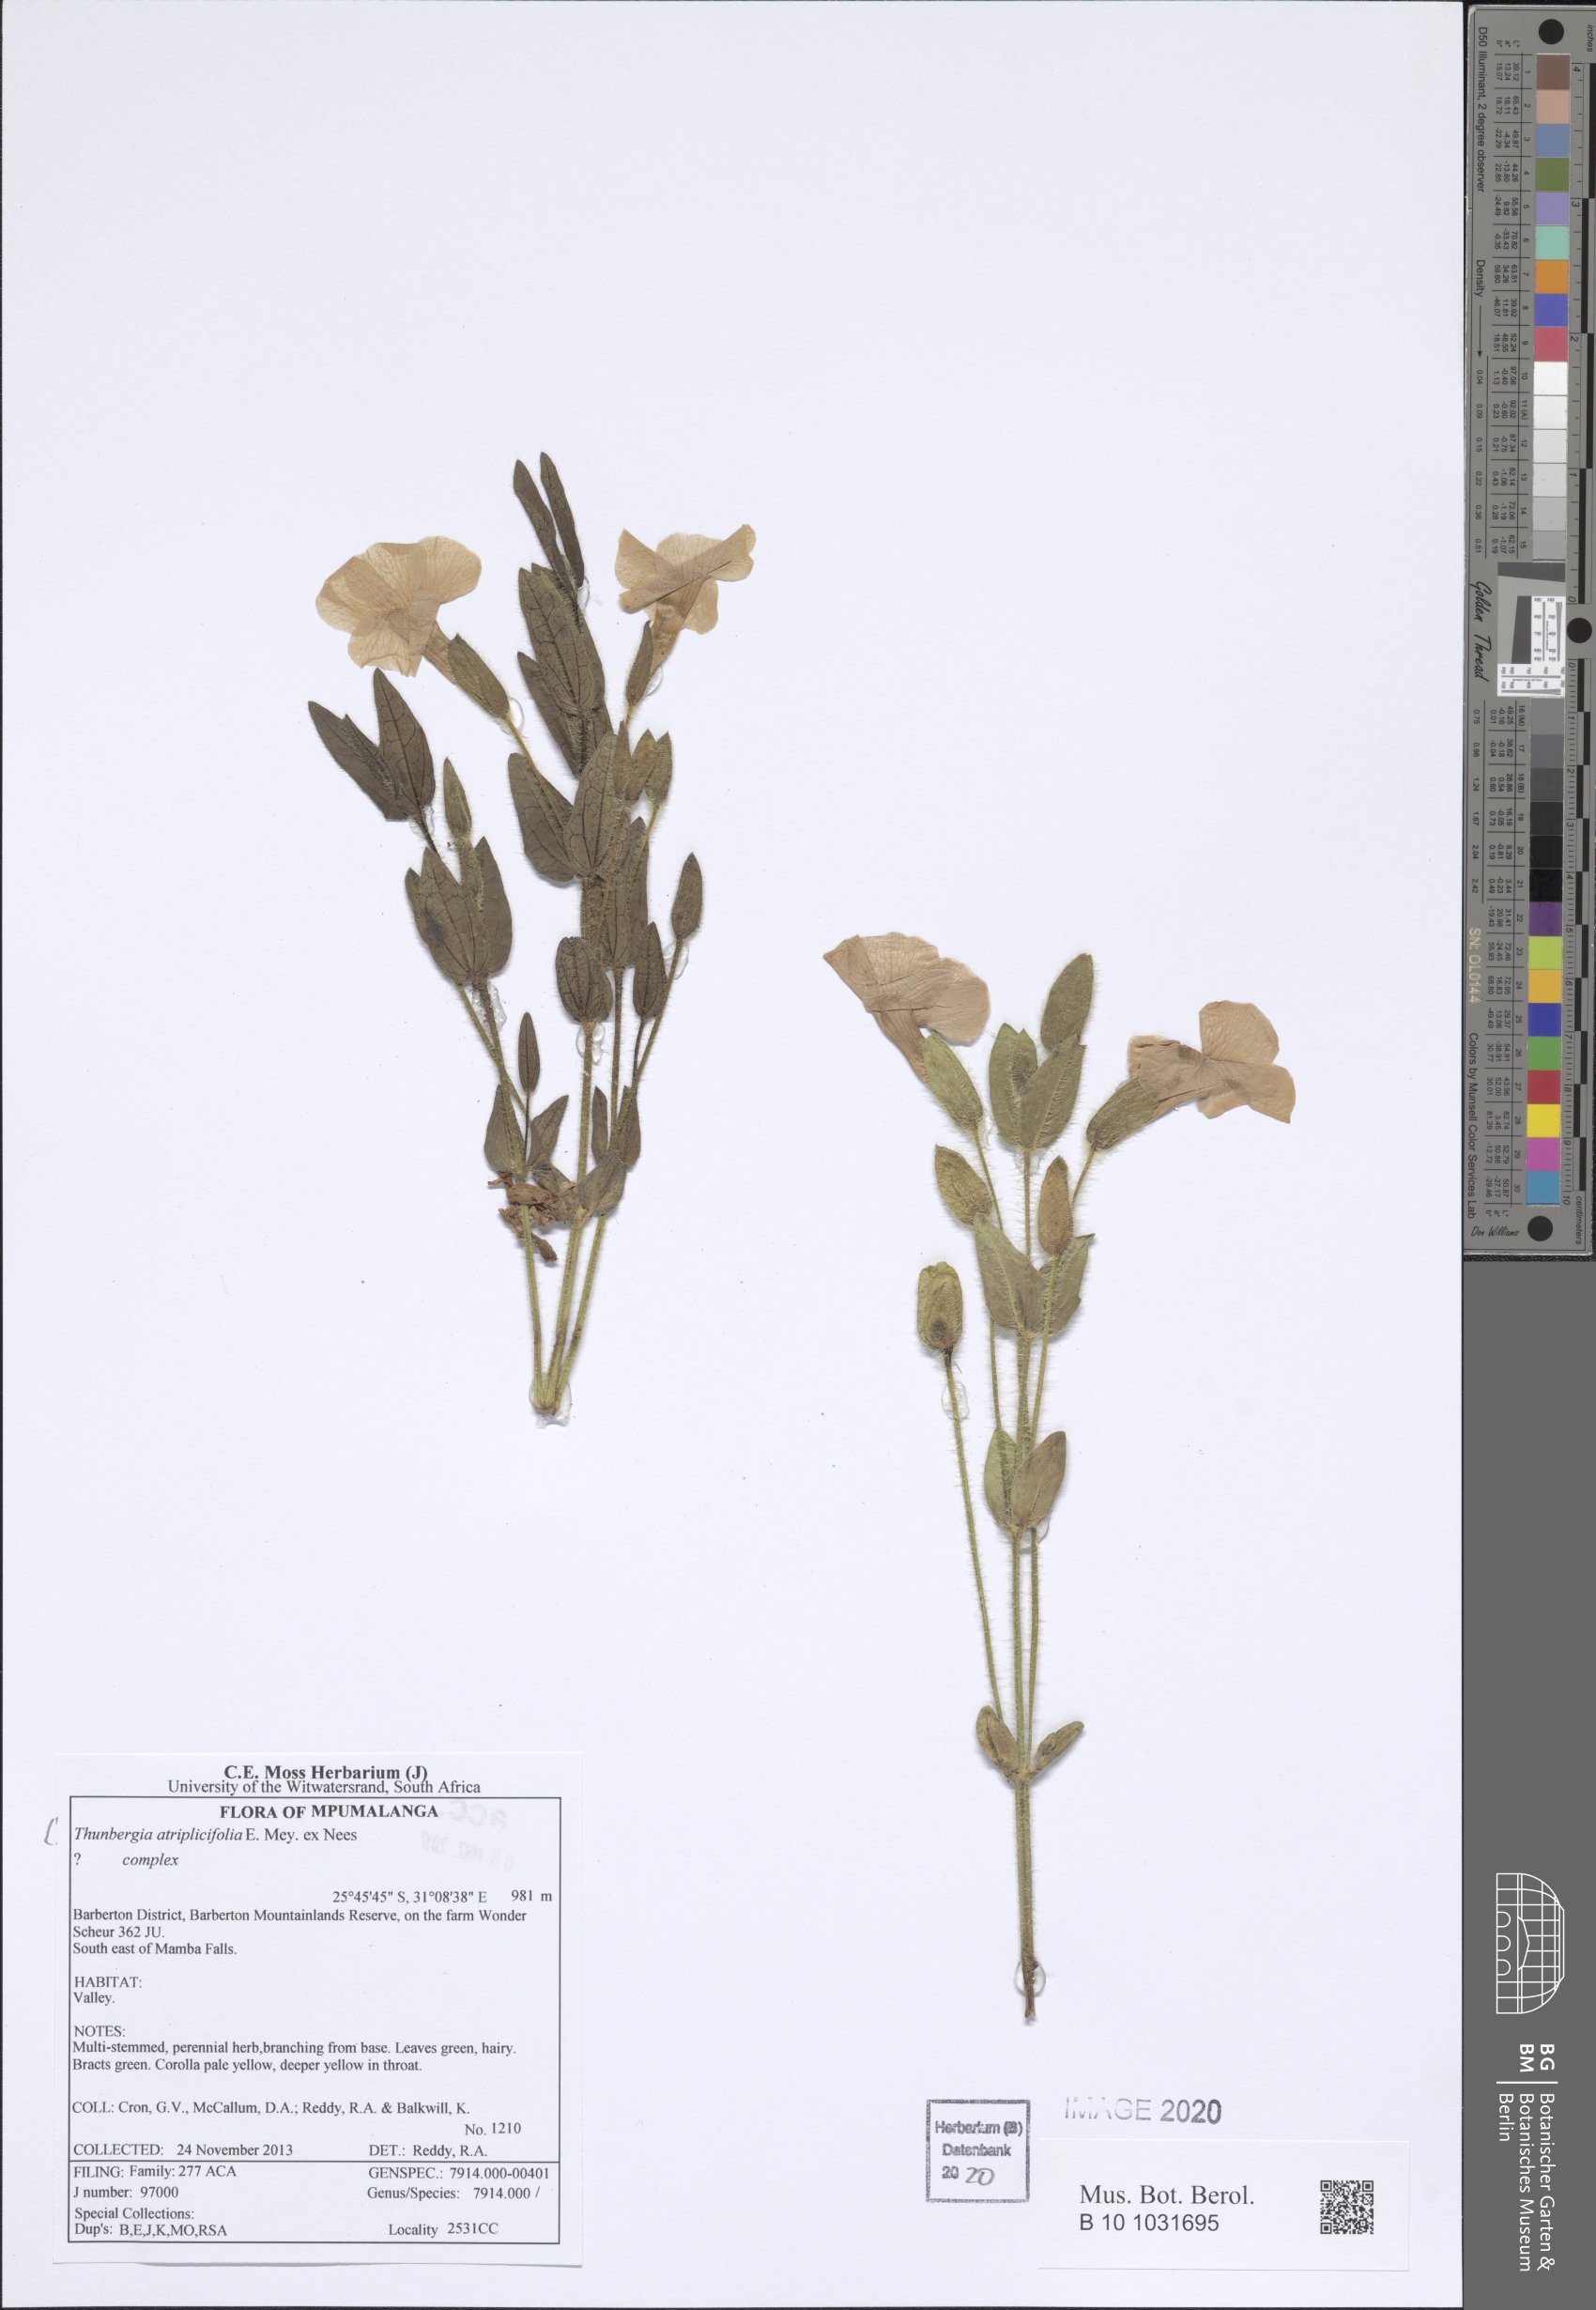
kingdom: Plantae
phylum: Tracheophyta
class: Magnoliopsida
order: Lamiales
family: Acanthaceae
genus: Thunbergia
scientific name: Thunbergia atriplicifolia
